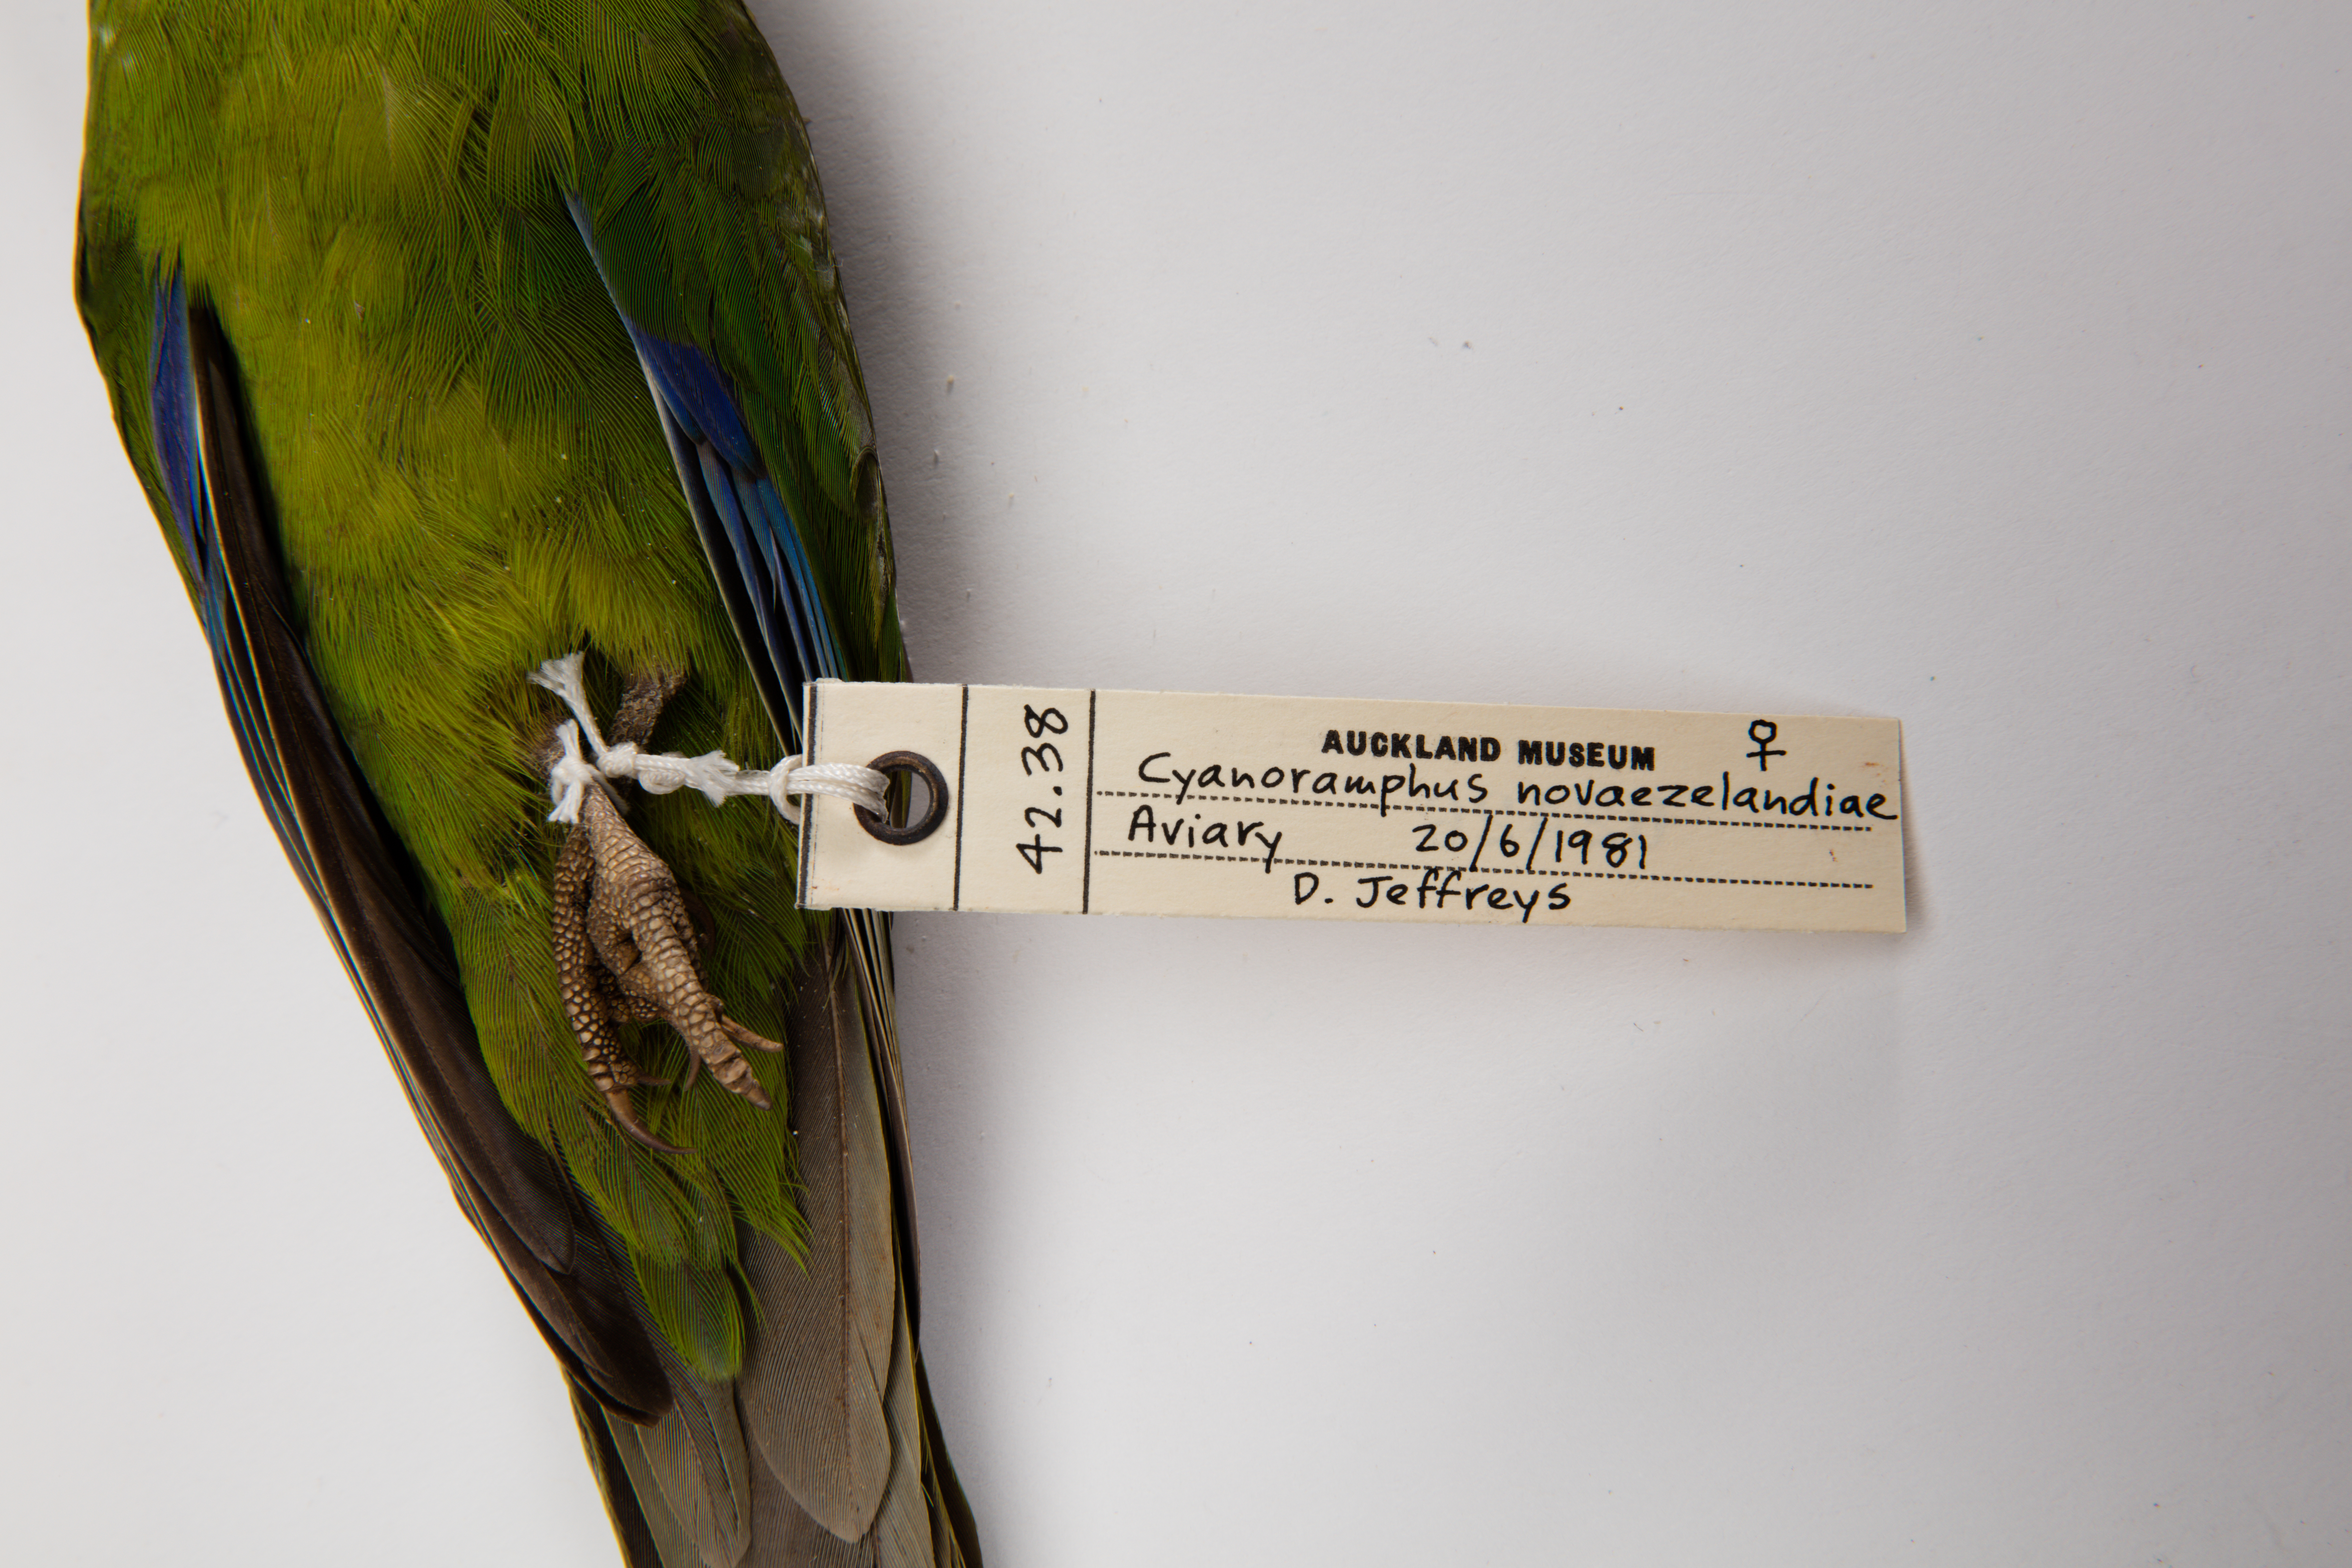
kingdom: Animalia
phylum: Chordata
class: Aves
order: Psittaciformes
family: Psittacidae
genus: Cyanoramphus
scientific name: Cyanoramphus novaezelandiae
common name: Red-fronted parakeet
